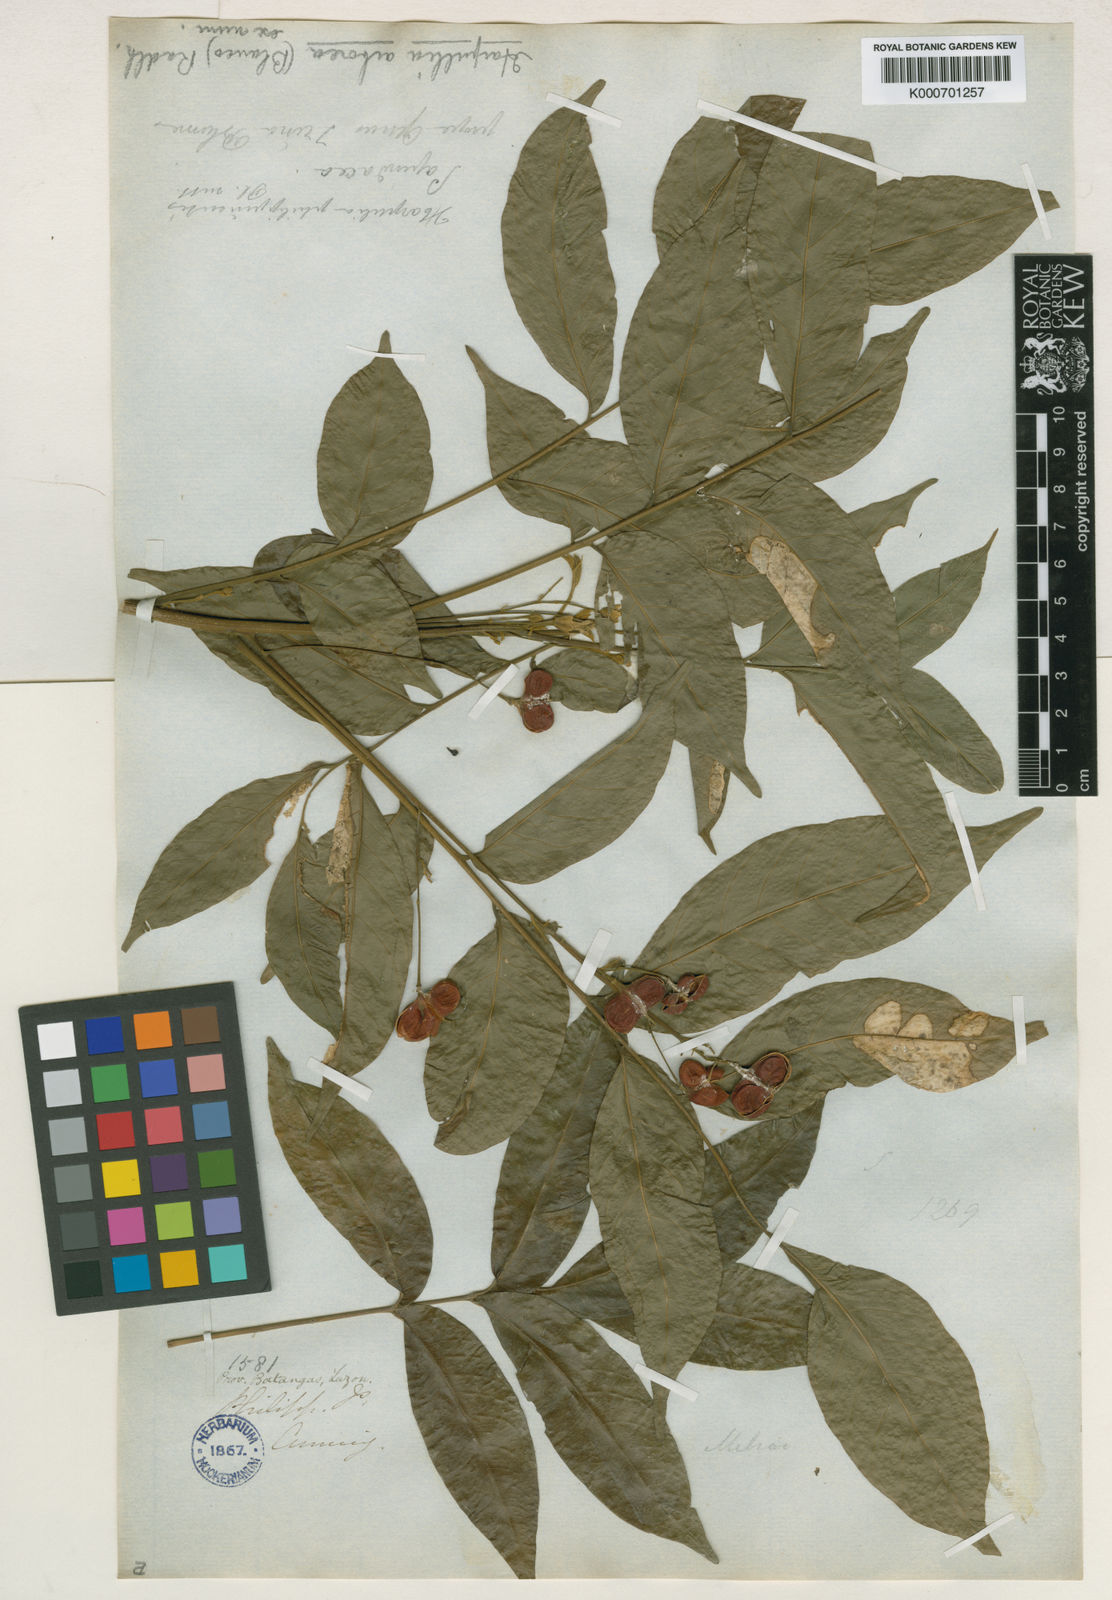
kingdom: Plantae
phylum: Tracheophyta
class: Magnoliopsida
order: Sapindales
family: Sapindaceae
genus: Harpullia
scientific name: Harpullia cupanioides
